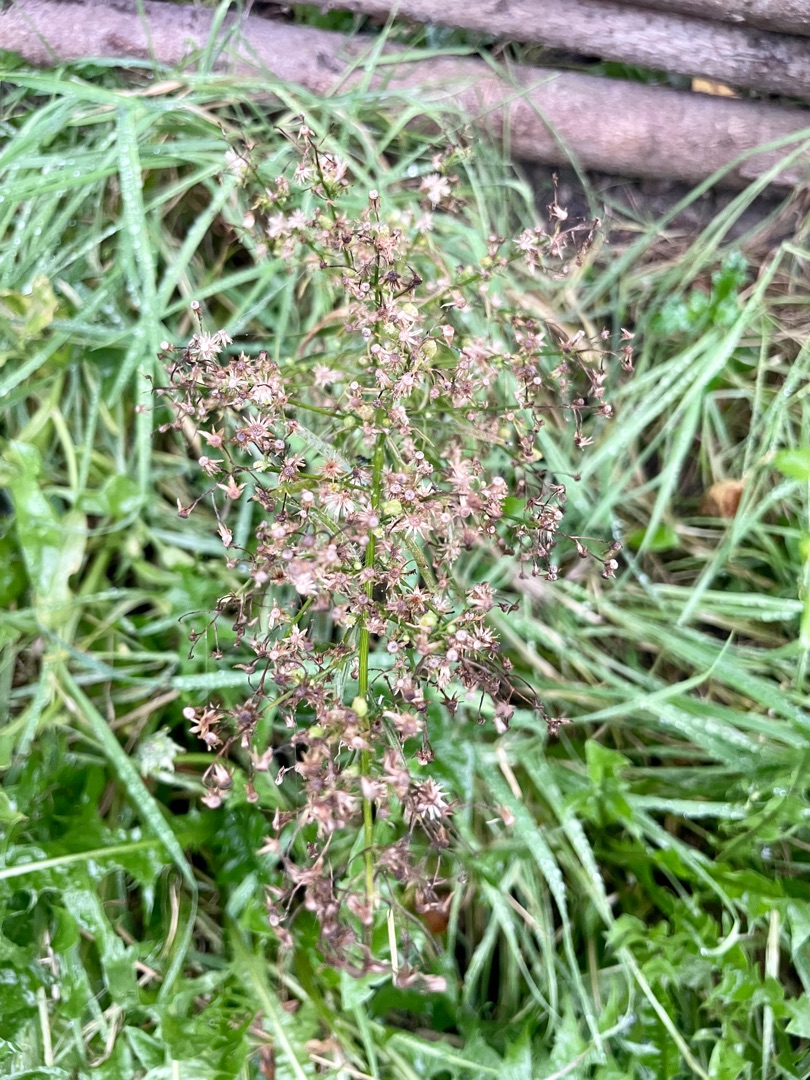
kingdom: Plantae
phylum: Tracheophyta
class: Magnoliopsida
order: Asterales
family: Asteraceae
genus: Erigeron
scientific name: Erigeron canadensis
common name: Kanadisk bakkestjerne
